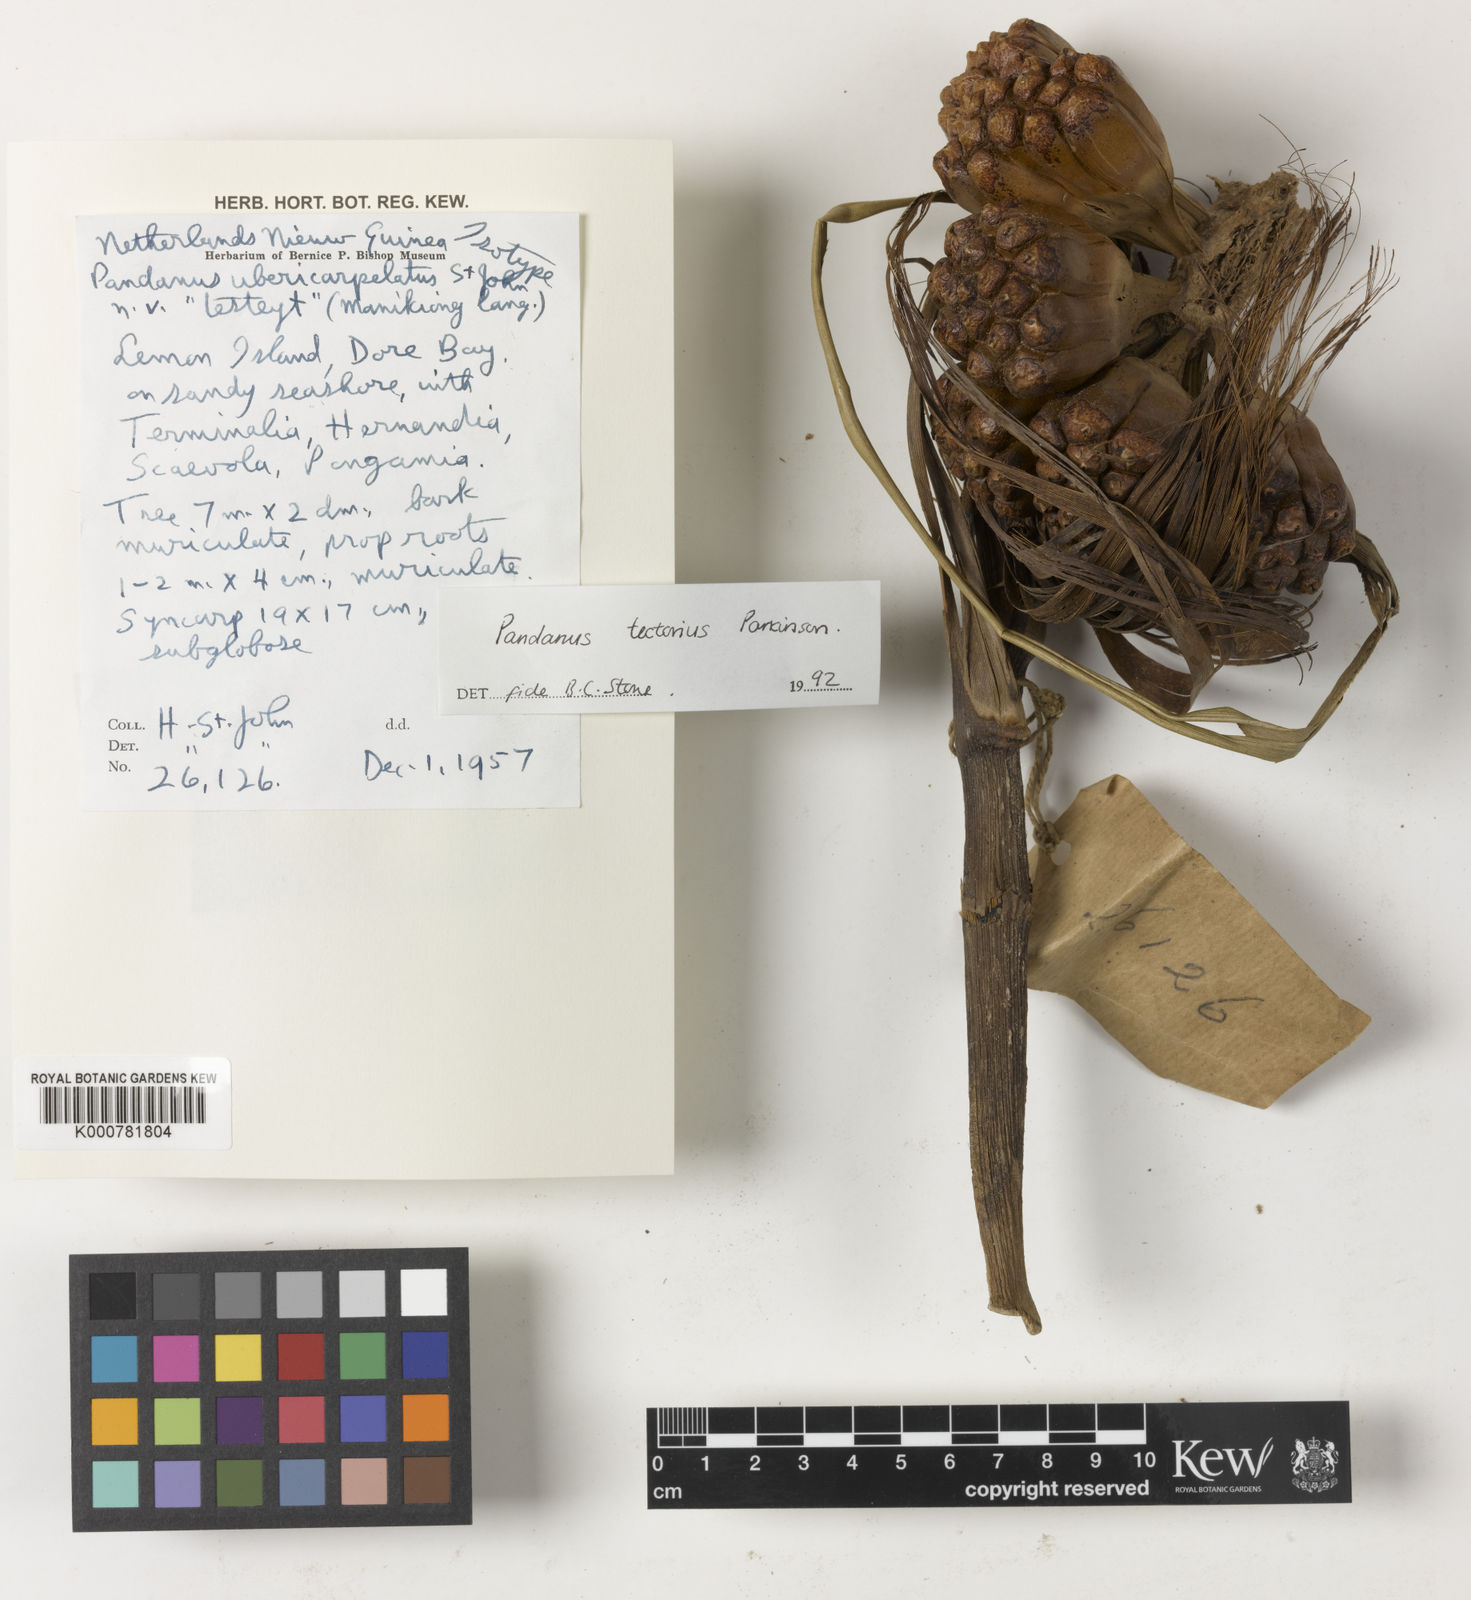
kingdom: Plantae
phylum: Tracheophyta
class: Liliopsida
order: Pandanales
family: Pandanaceae
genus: Pandanus
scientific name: Pandanus
